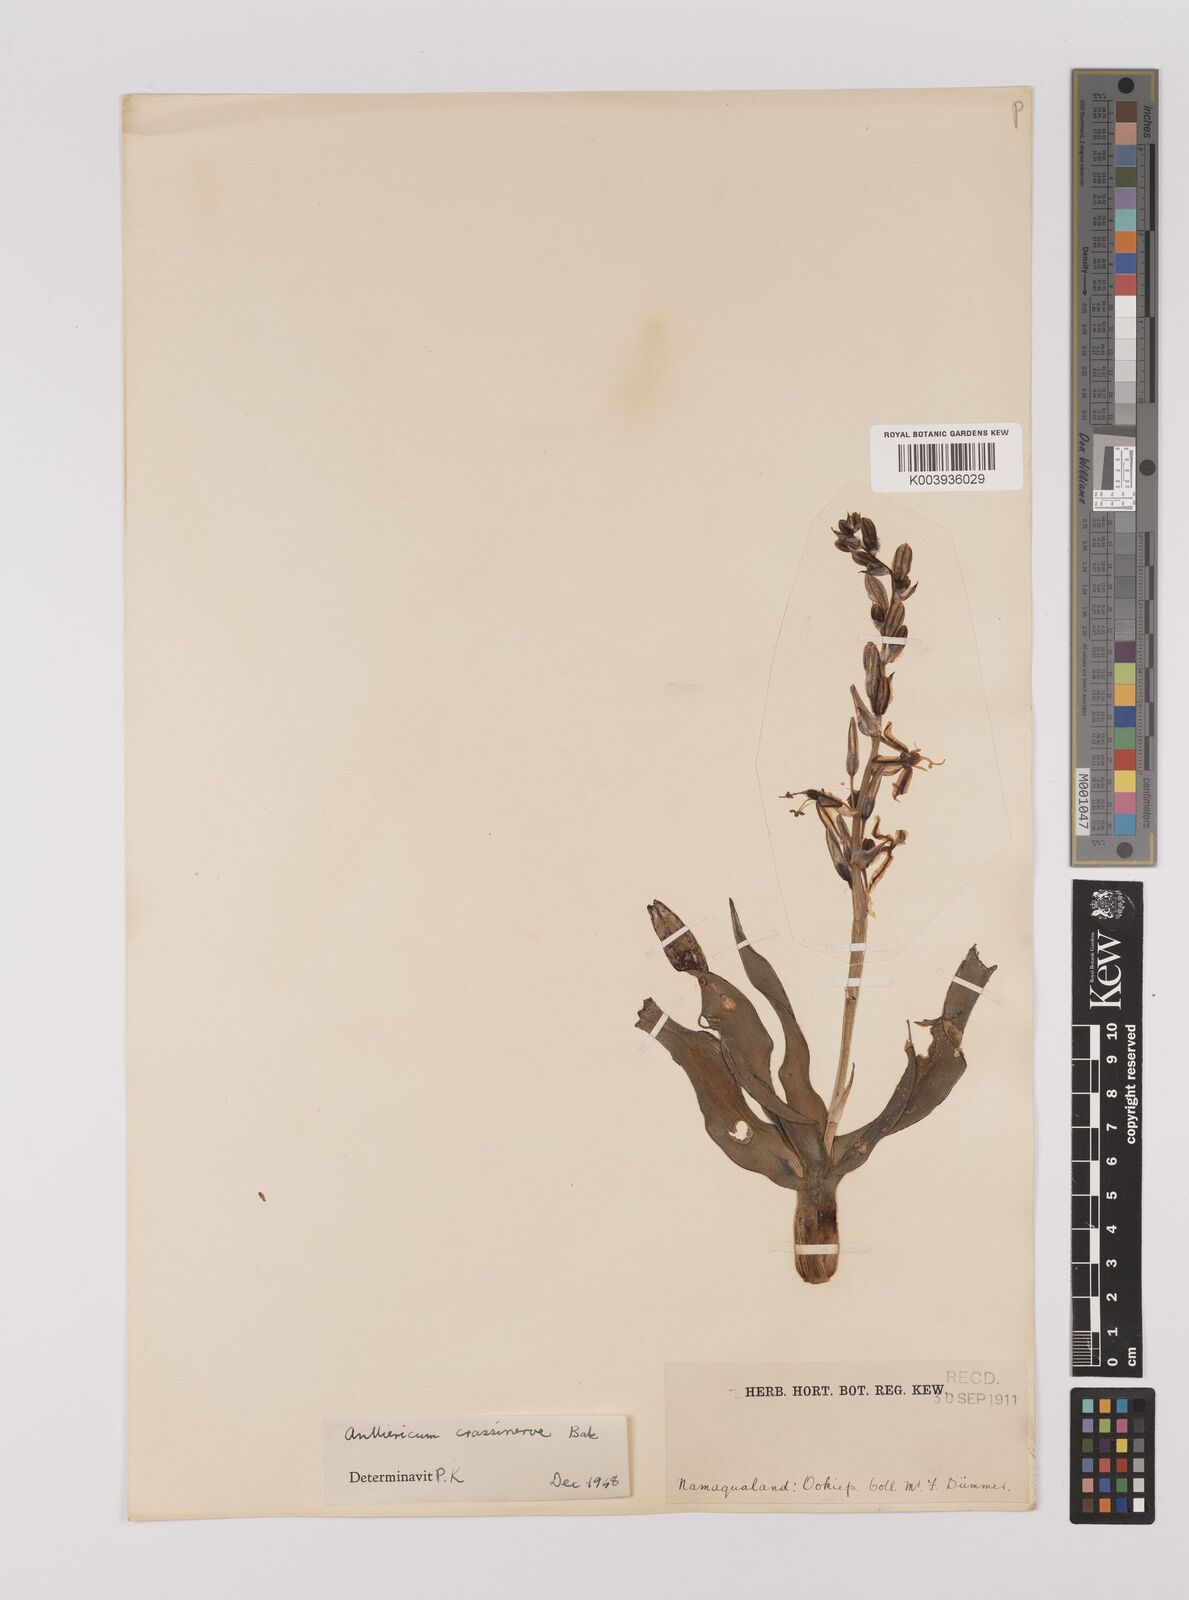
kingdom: Plantae
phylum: Tracheophyta
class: Liliopsida
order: Asparagales
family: Asparagaceae
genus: Chlorophytum
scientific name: Chlorophytum crassinerve
